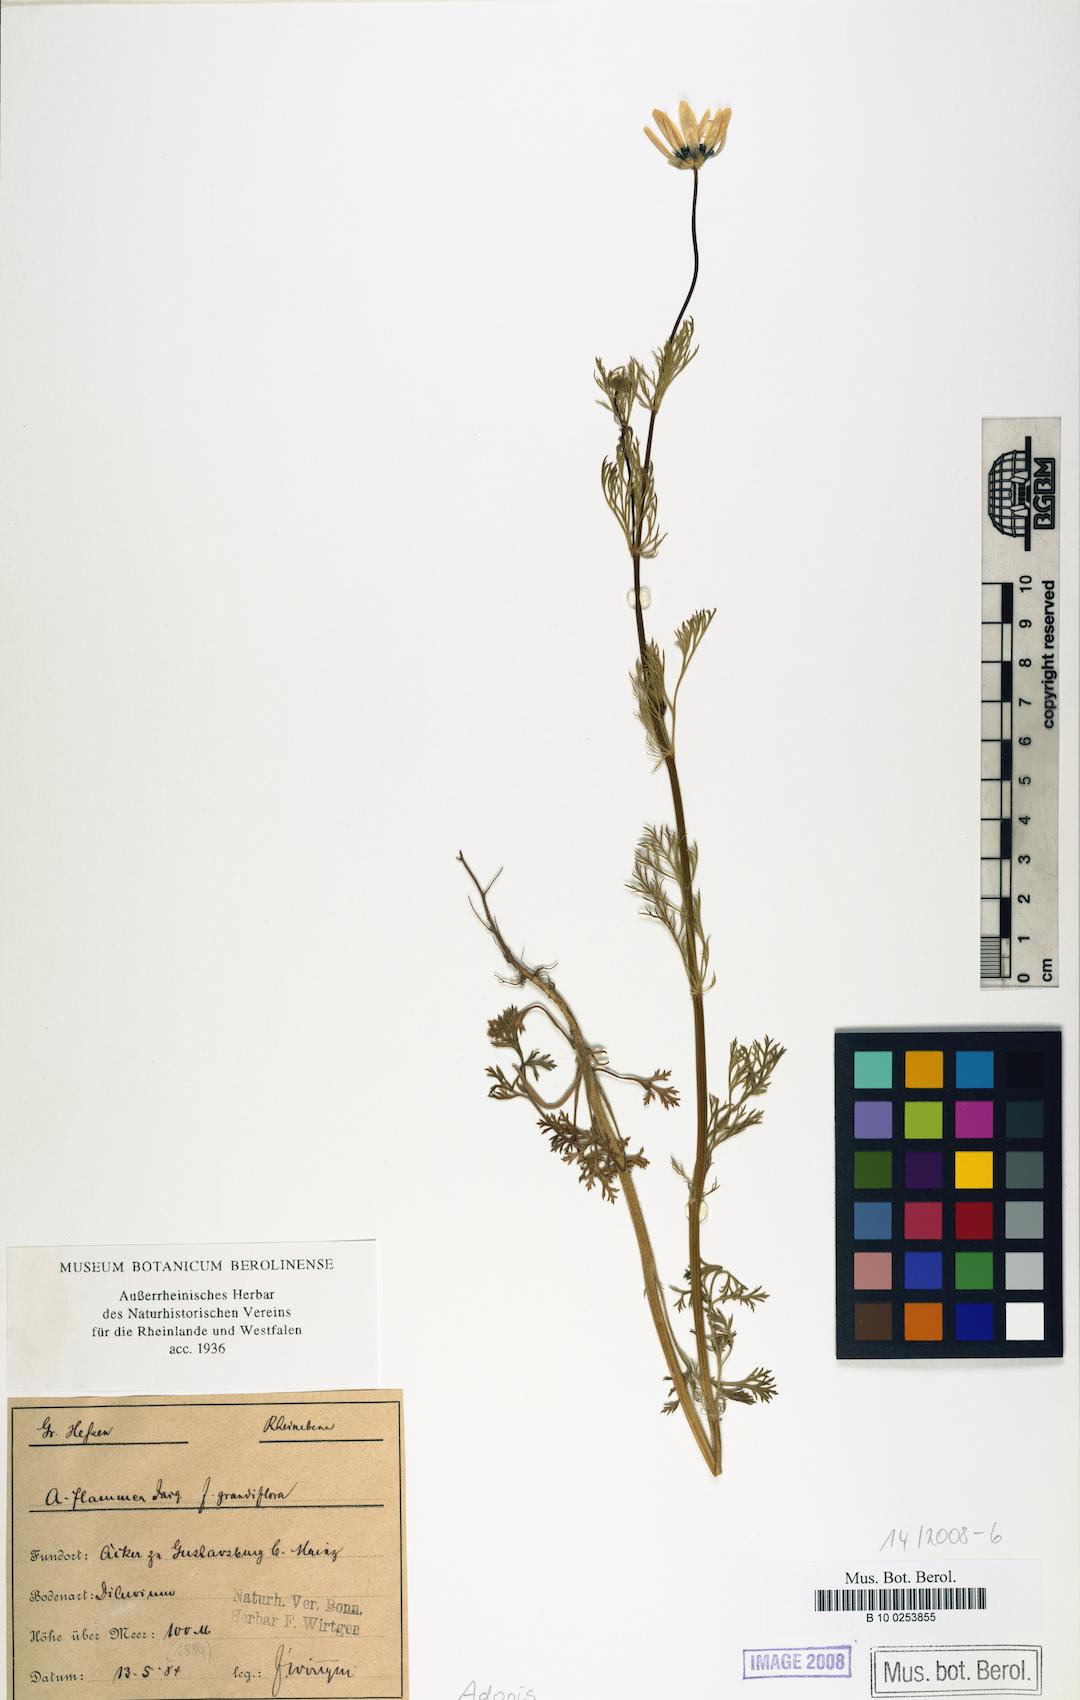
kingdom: Plantae
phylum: Tracheophyta
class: Magnoliopsida
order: Ranunculales
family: Ranunculaceae
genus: Adonis
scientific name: Adonis
